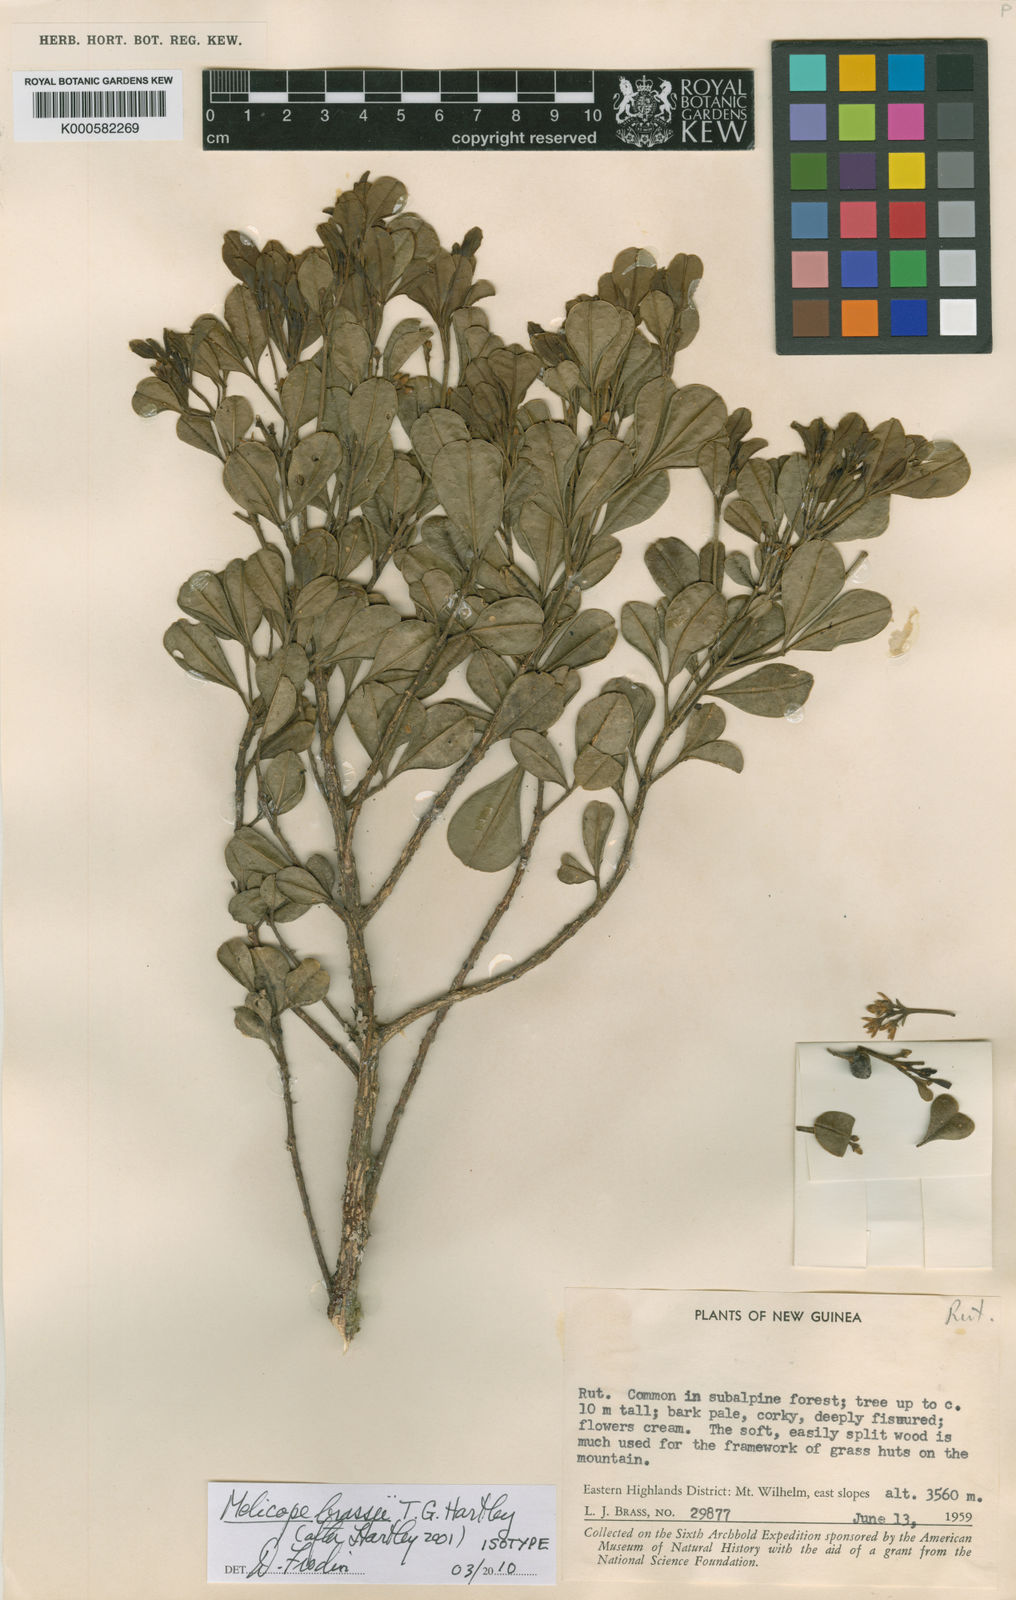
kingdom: Plantae
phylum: Tracheophyta
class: Magnoliopsida
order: Sapindales
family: Rutaceae
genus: Melicope
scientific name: Melicope brassii
